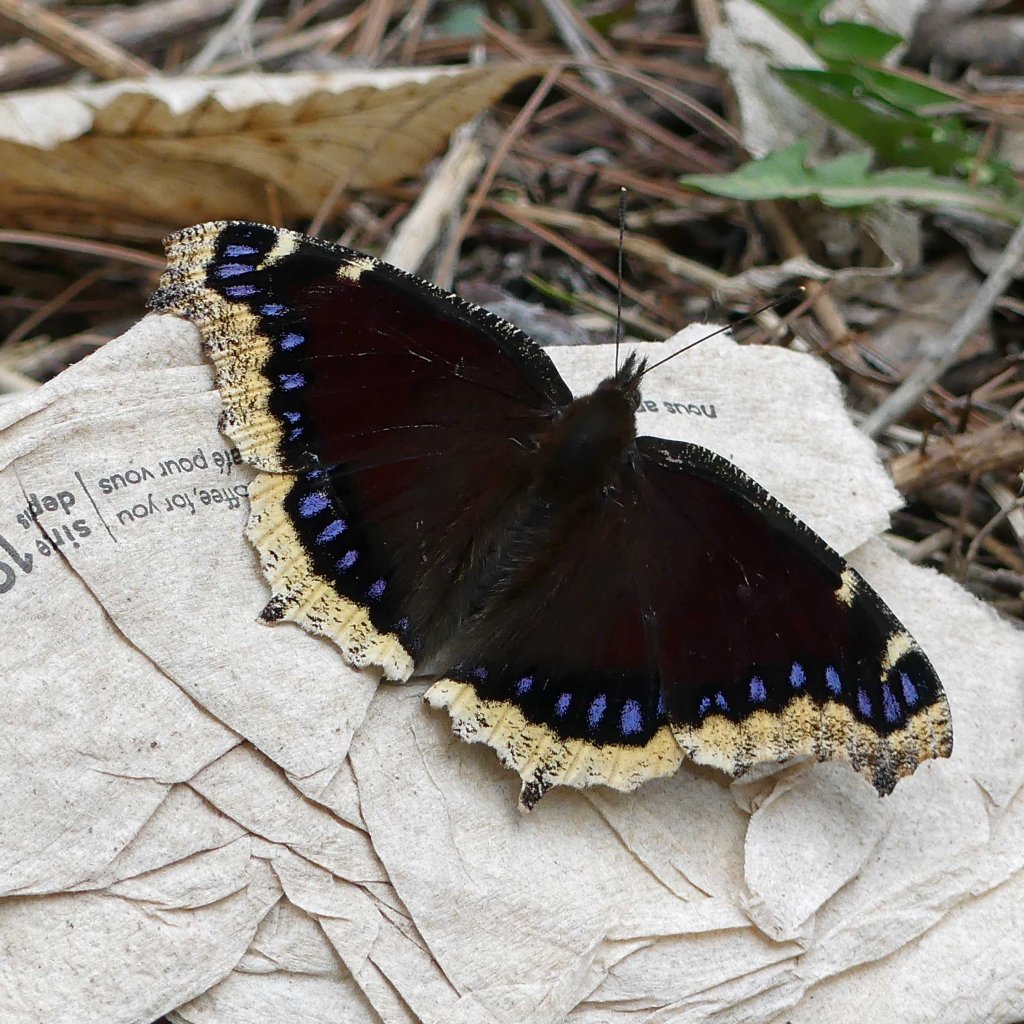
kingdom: Animalia
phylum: Arthropoda
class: Insecta
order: Lepidoptera
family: Nymphalidae
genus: Nymphalis
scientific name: Nymphalis antiopa
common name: Mourning Cloak
